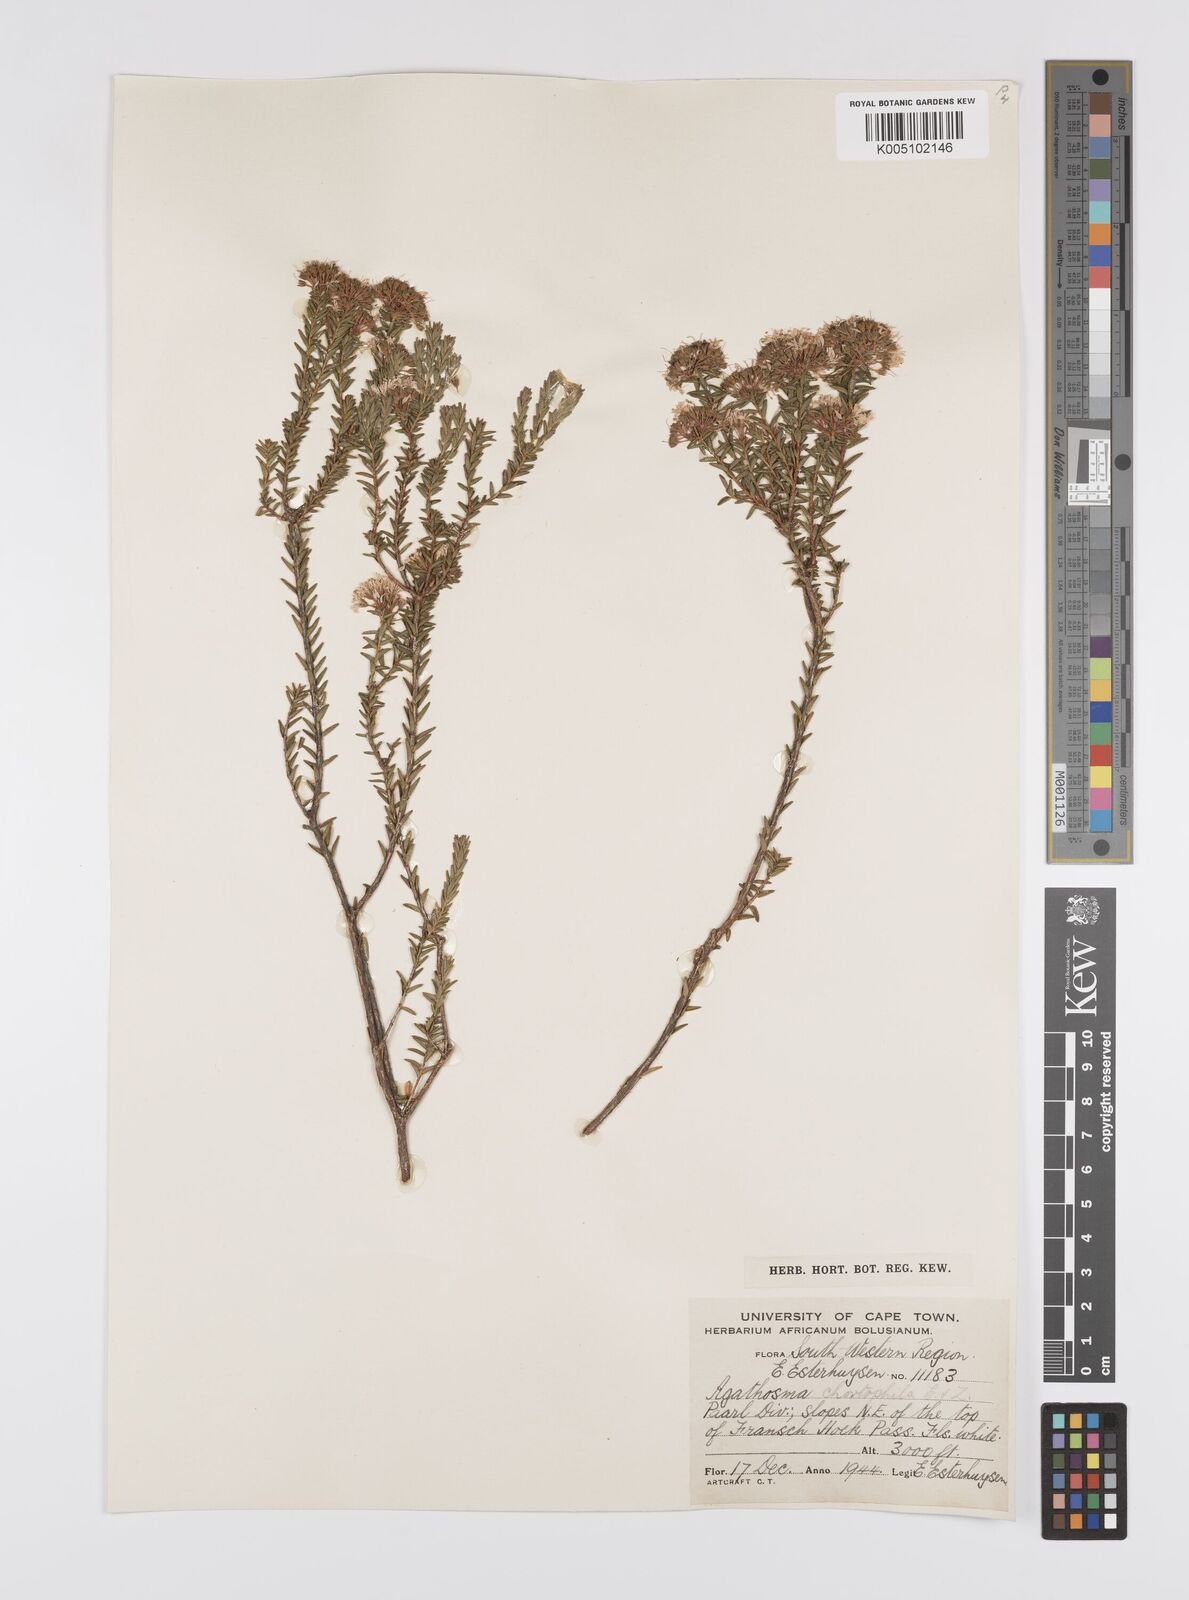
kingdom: Plantae
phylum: Tracheophyta
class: Magnoliopsida
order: Sapindales
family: Rutaceae
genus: Agathosma
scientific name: Agathosma capensis
